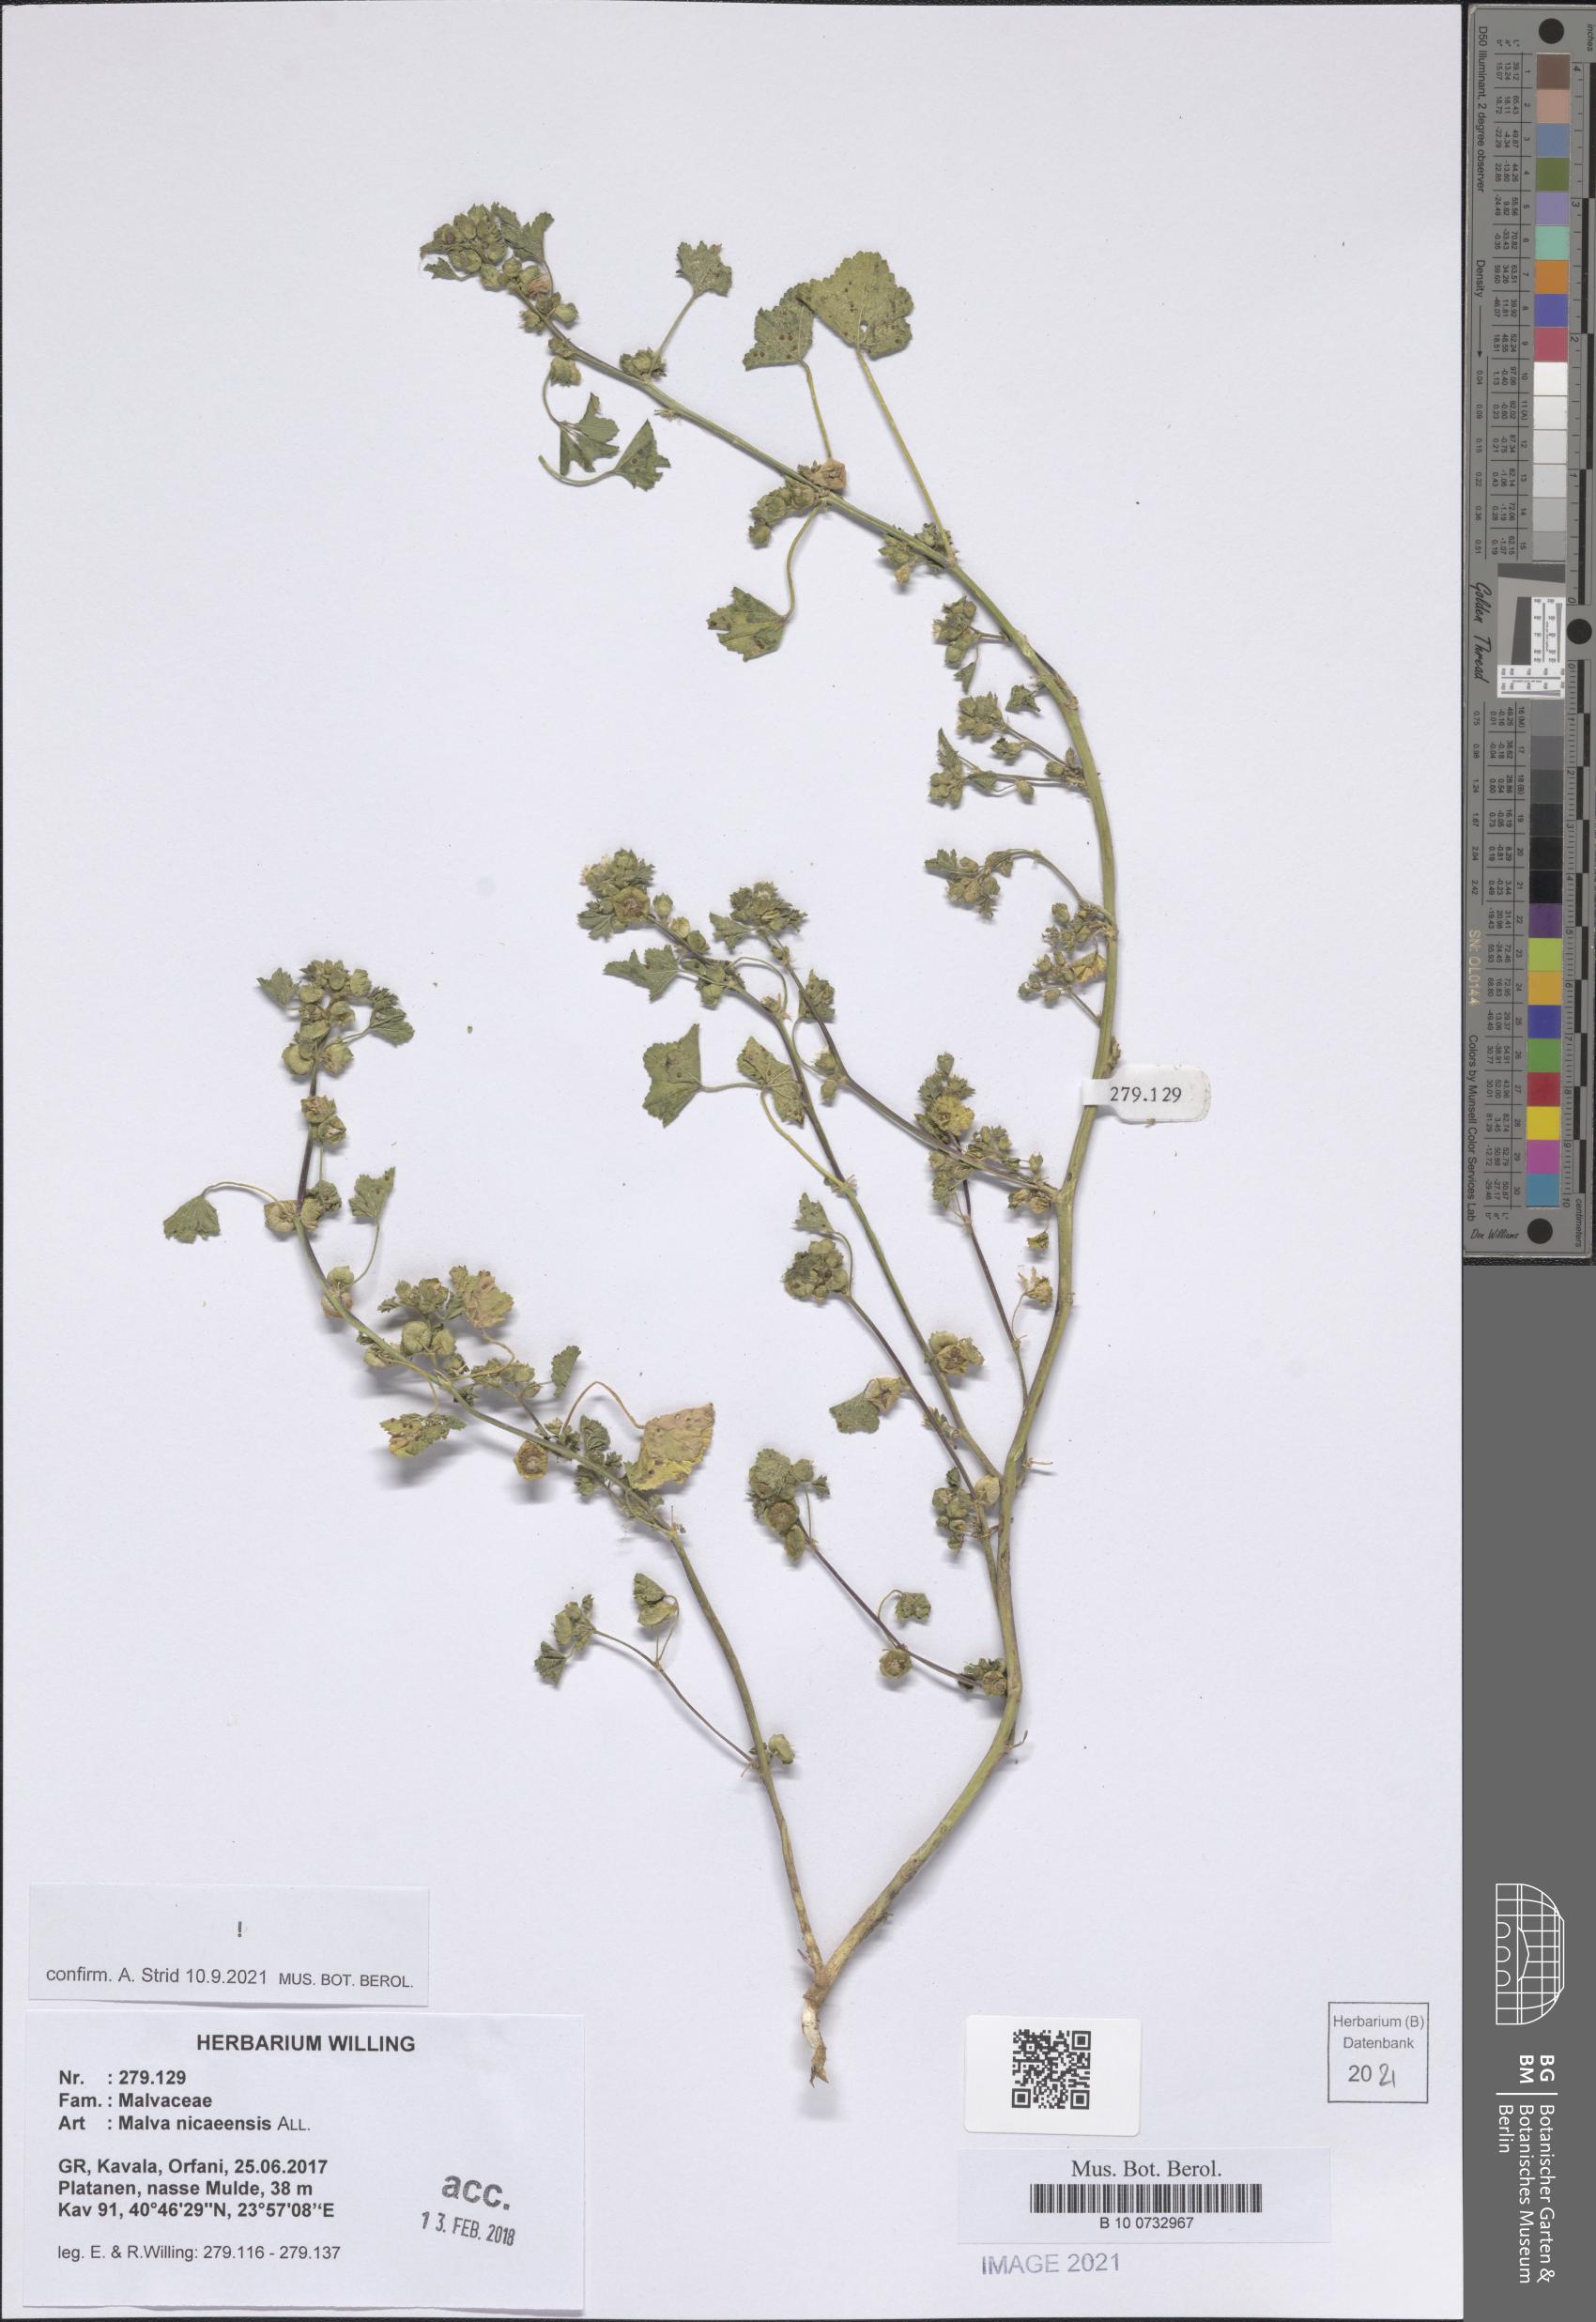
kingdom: Plantae
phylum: Tracheophyta
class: Magnoliopsida
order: Malvales
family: Malvaceae
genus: Malva
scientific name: Malva nicaeensis
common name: French mallow
